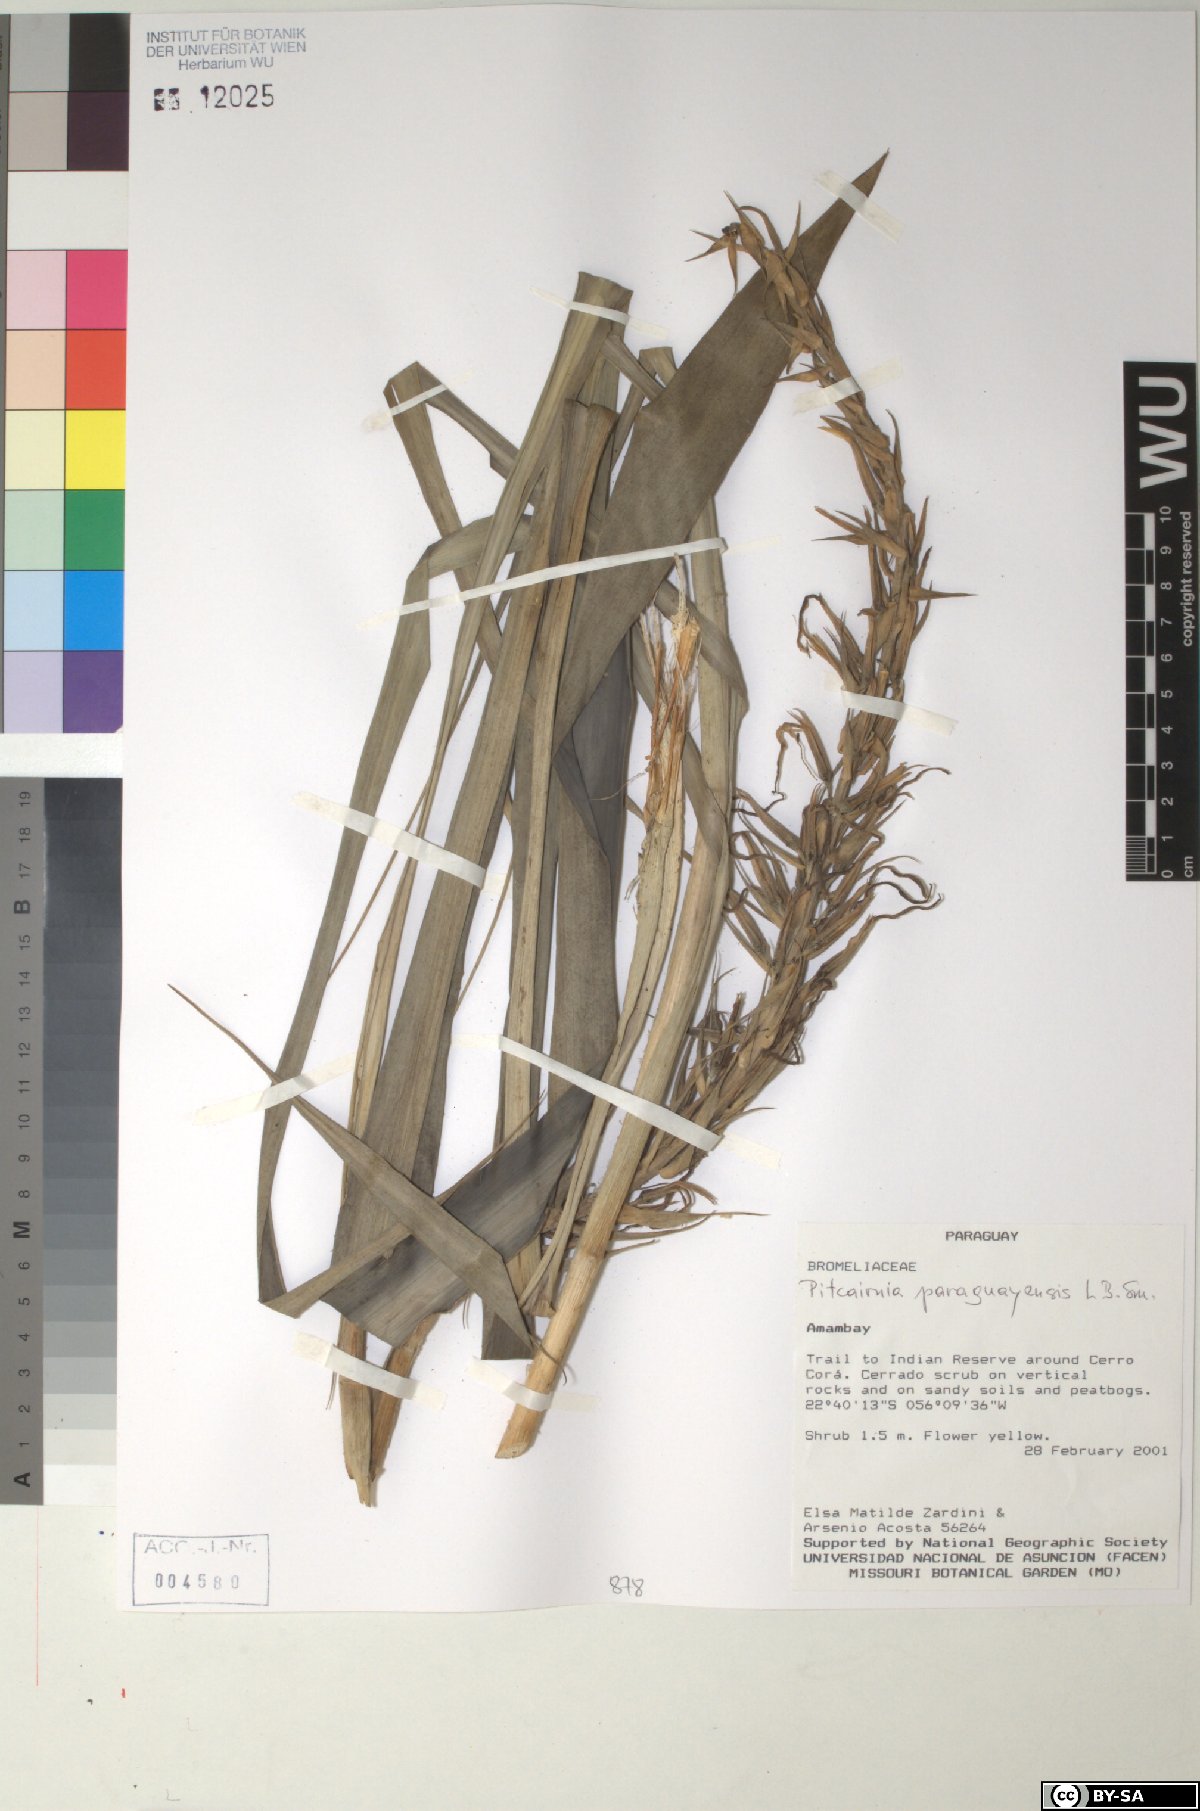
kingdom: Plantae
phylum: Tracheophyta
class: Liliopsida
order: Poales
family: Bromeliaceae
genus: Pitcairnia
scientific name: Pitcairnia paraguayensis
